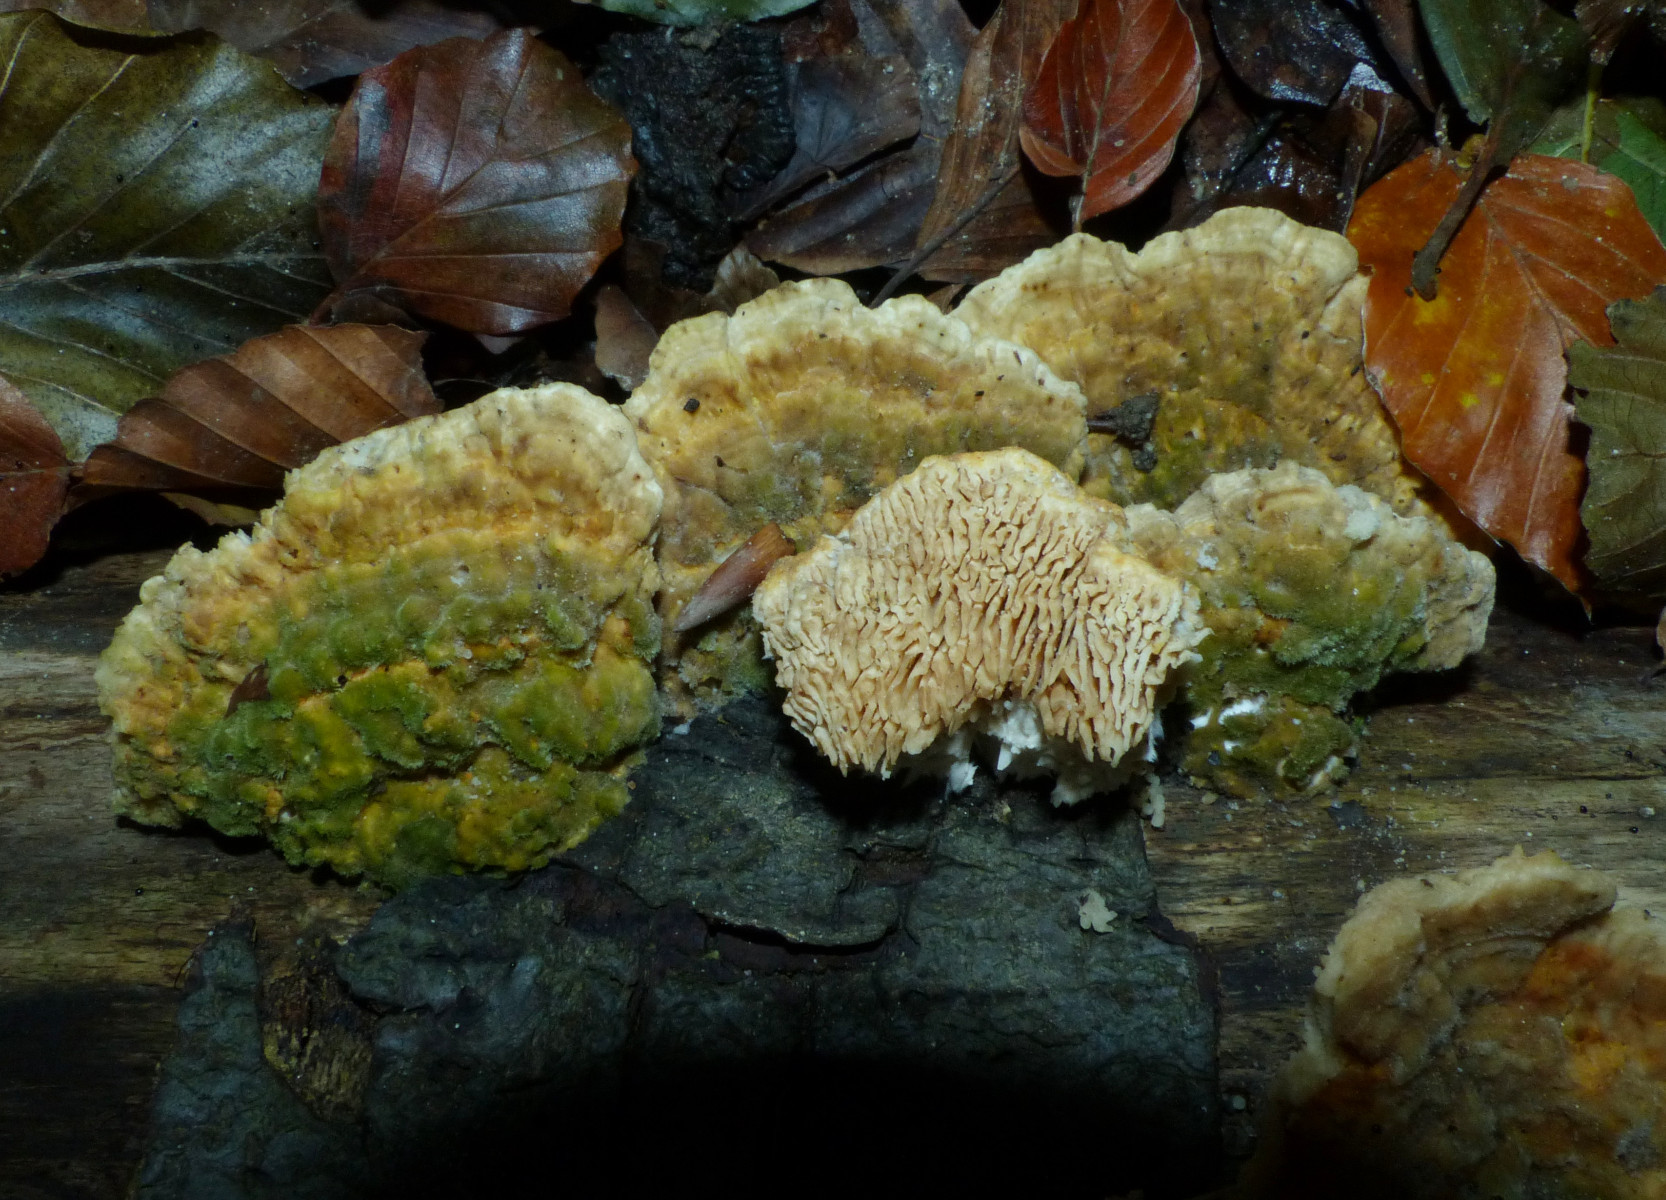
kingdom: Fungi
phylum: Basidiomycota
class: Agaricomycetes
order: Polyporales
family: Polyporaceae
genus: Lenzites
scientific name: Lenzites betulinus
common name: birke-læderporesvamp
